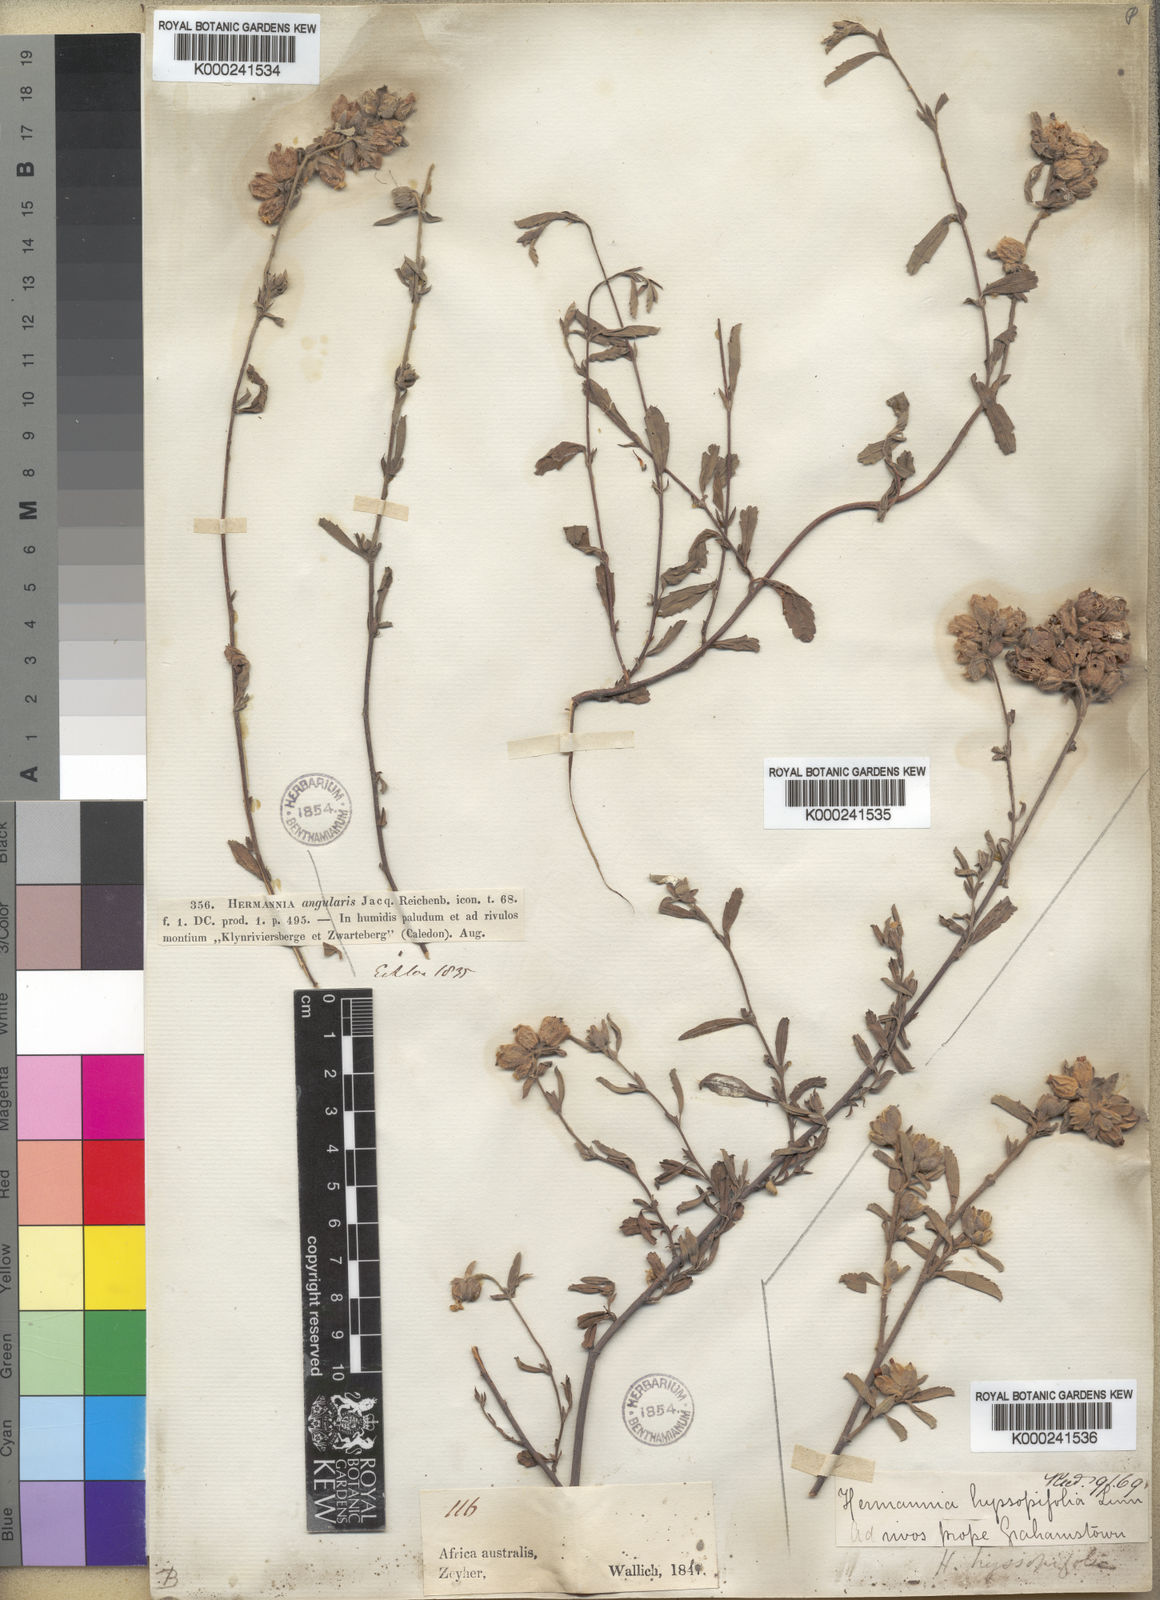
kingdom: Plantae
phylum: Tracheophyta
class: Magnoliopsida
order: Malvales
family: Malvaceae
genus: Hermannia
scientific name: Hermannia hyssopifolia
